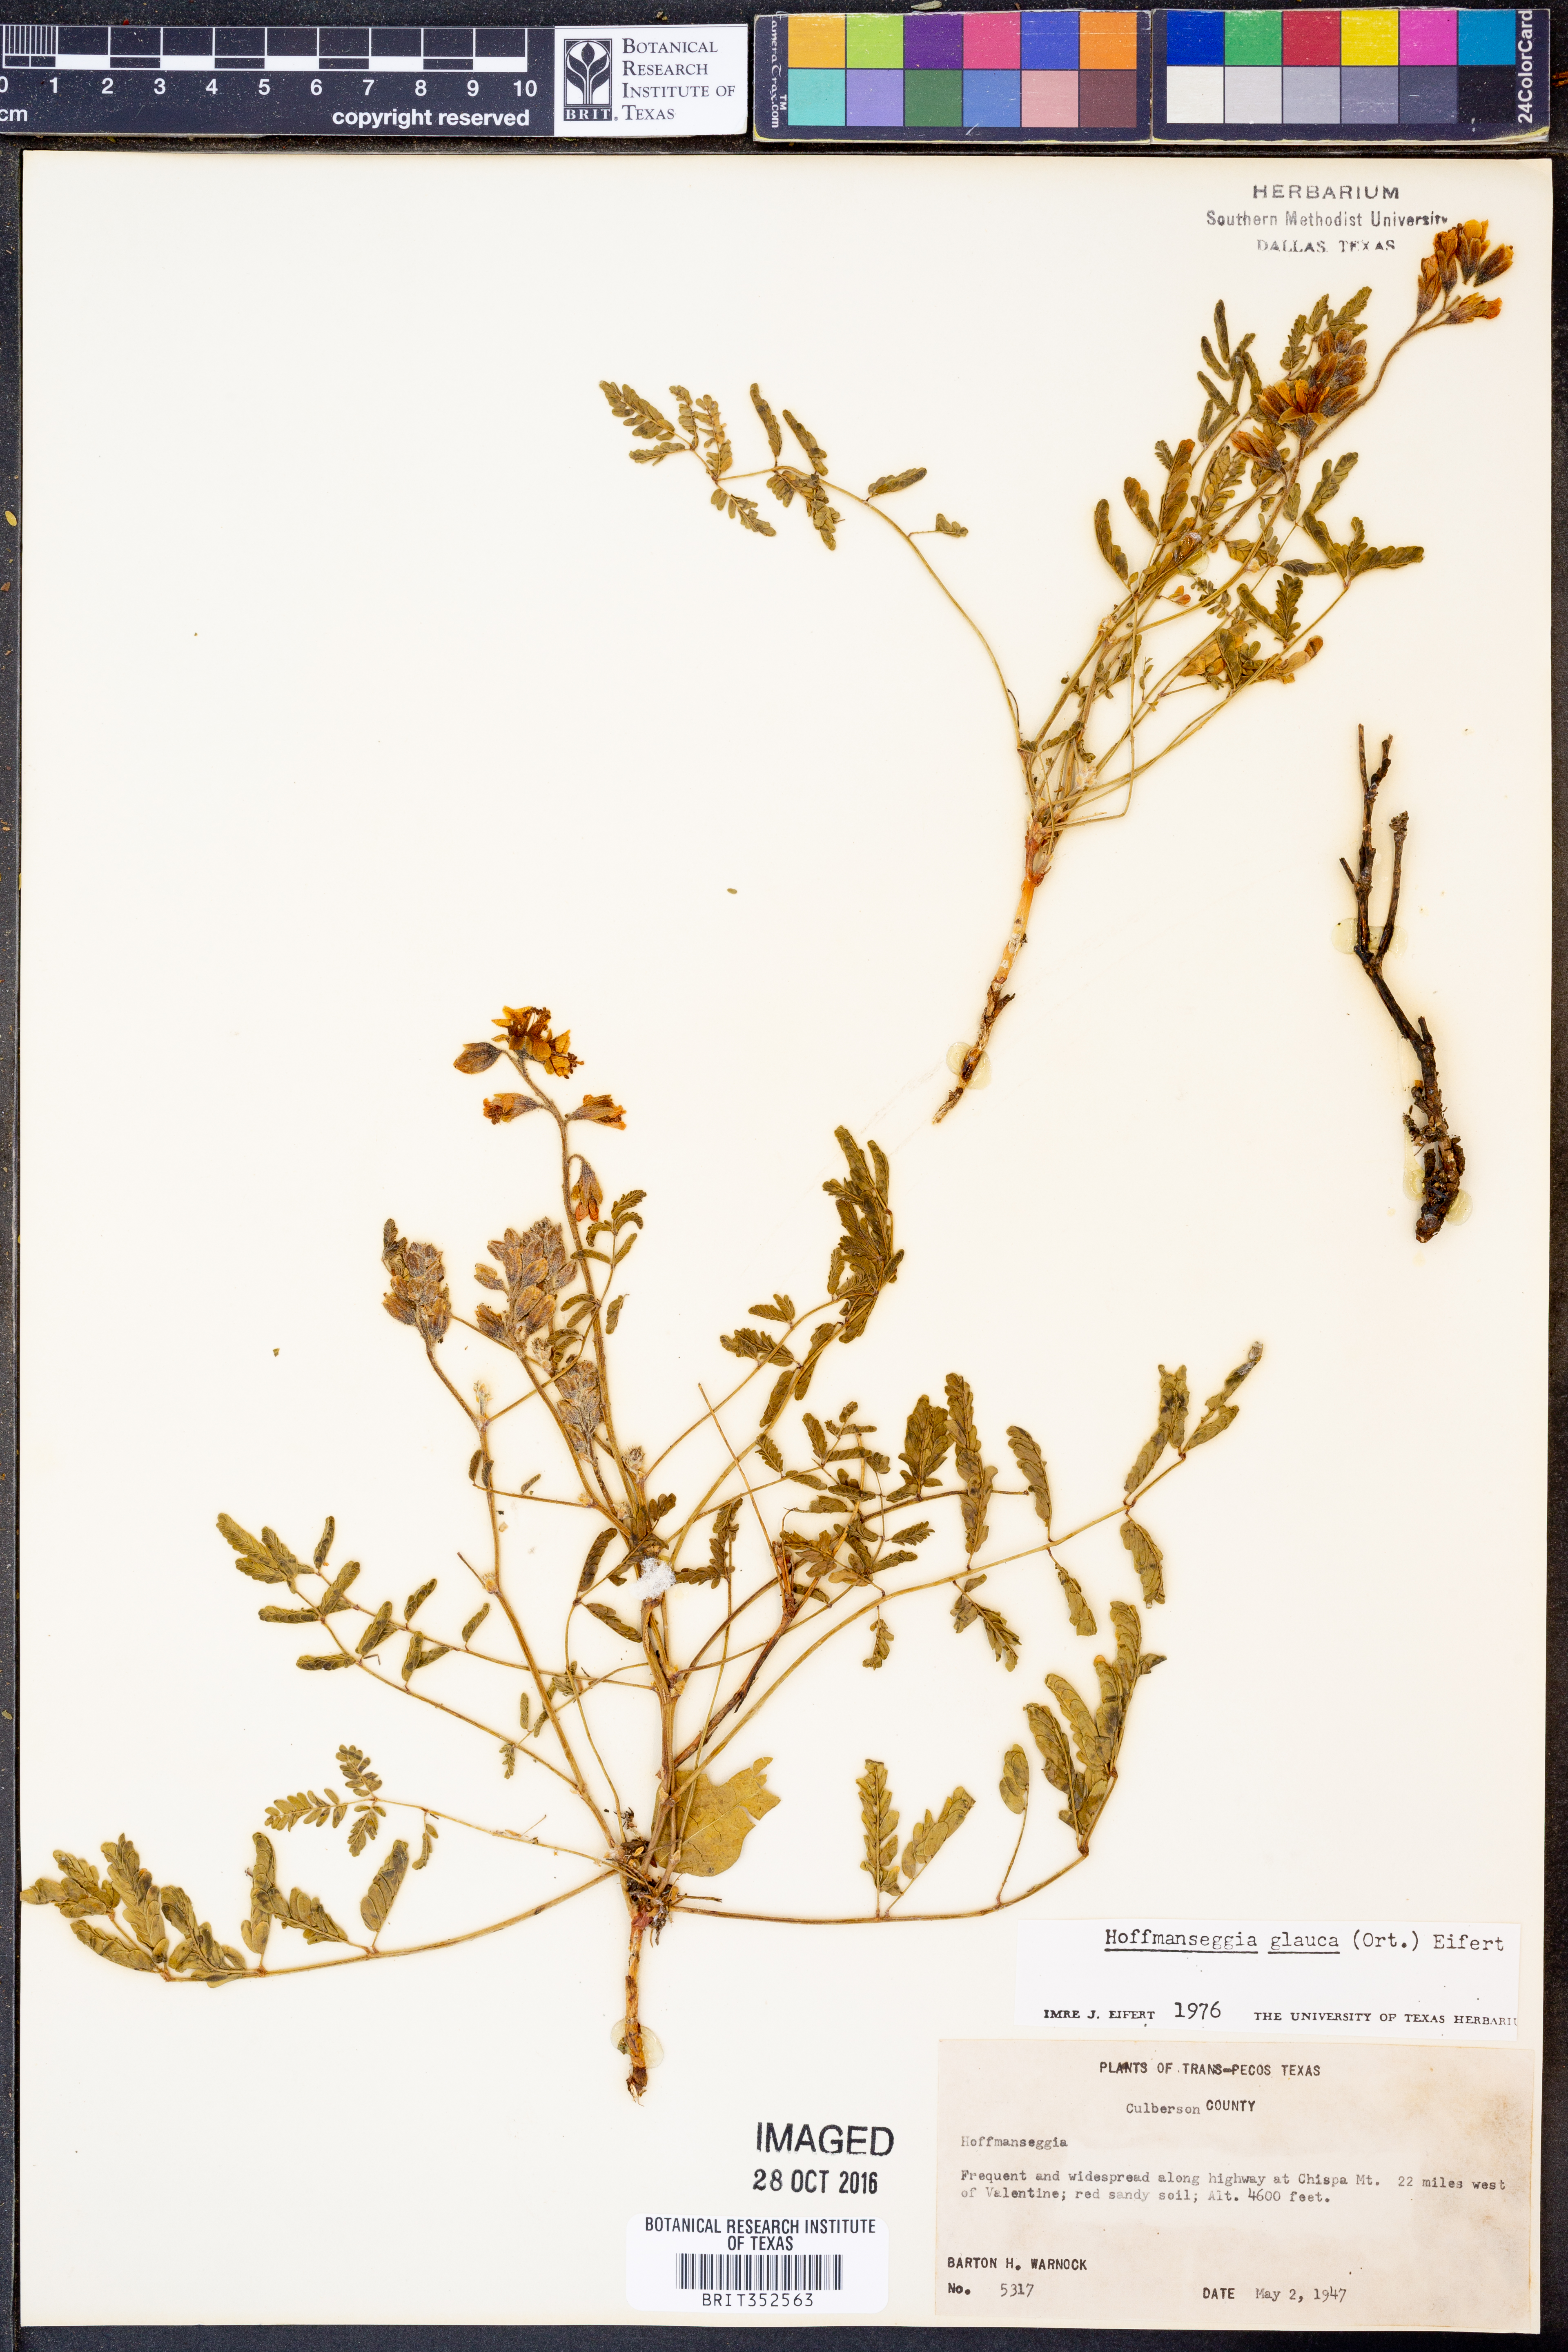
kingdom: Plantae
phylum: Tracheophyta
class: Magnoliopsida
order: Fabales
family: Fabaceae
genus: Hoffmannseggia
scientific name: Hoffmannseggia glauca
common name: Pignut
